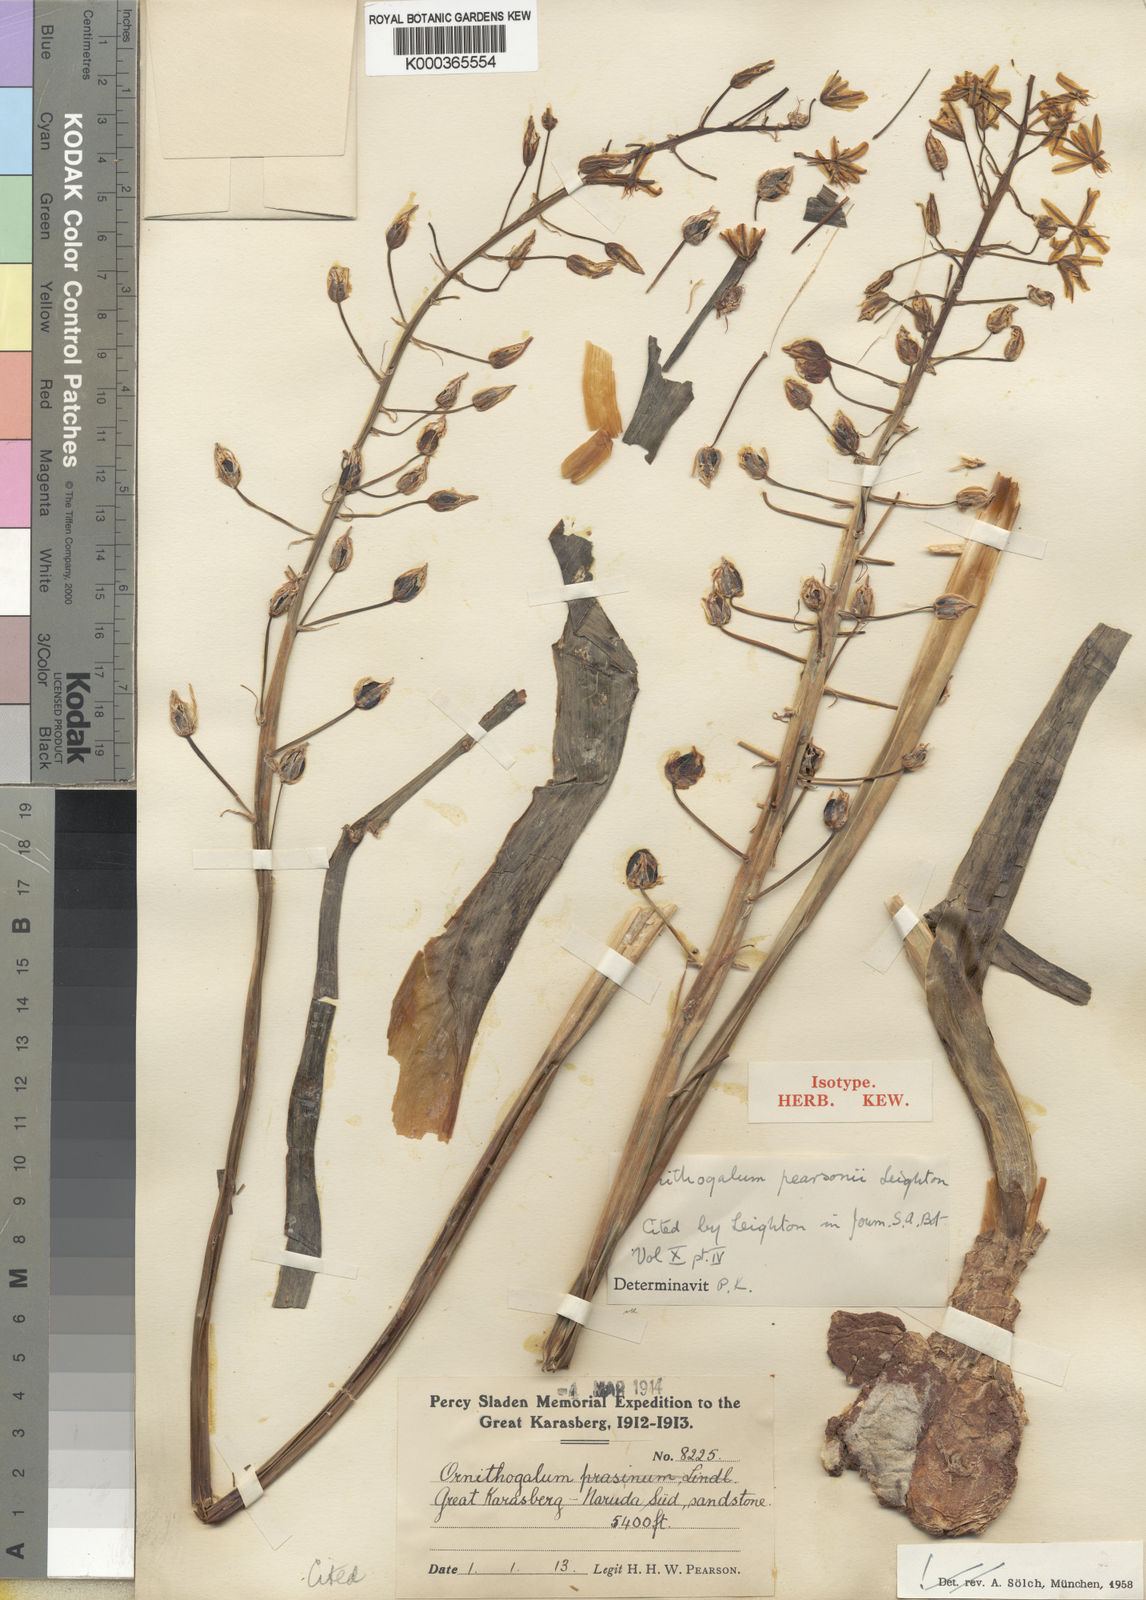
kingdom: Plantae
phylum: Tracheophyta
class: Liliopsida
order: Asparagales
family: Asparagaceae
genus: Albuca
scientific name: Albuca suaveolens
